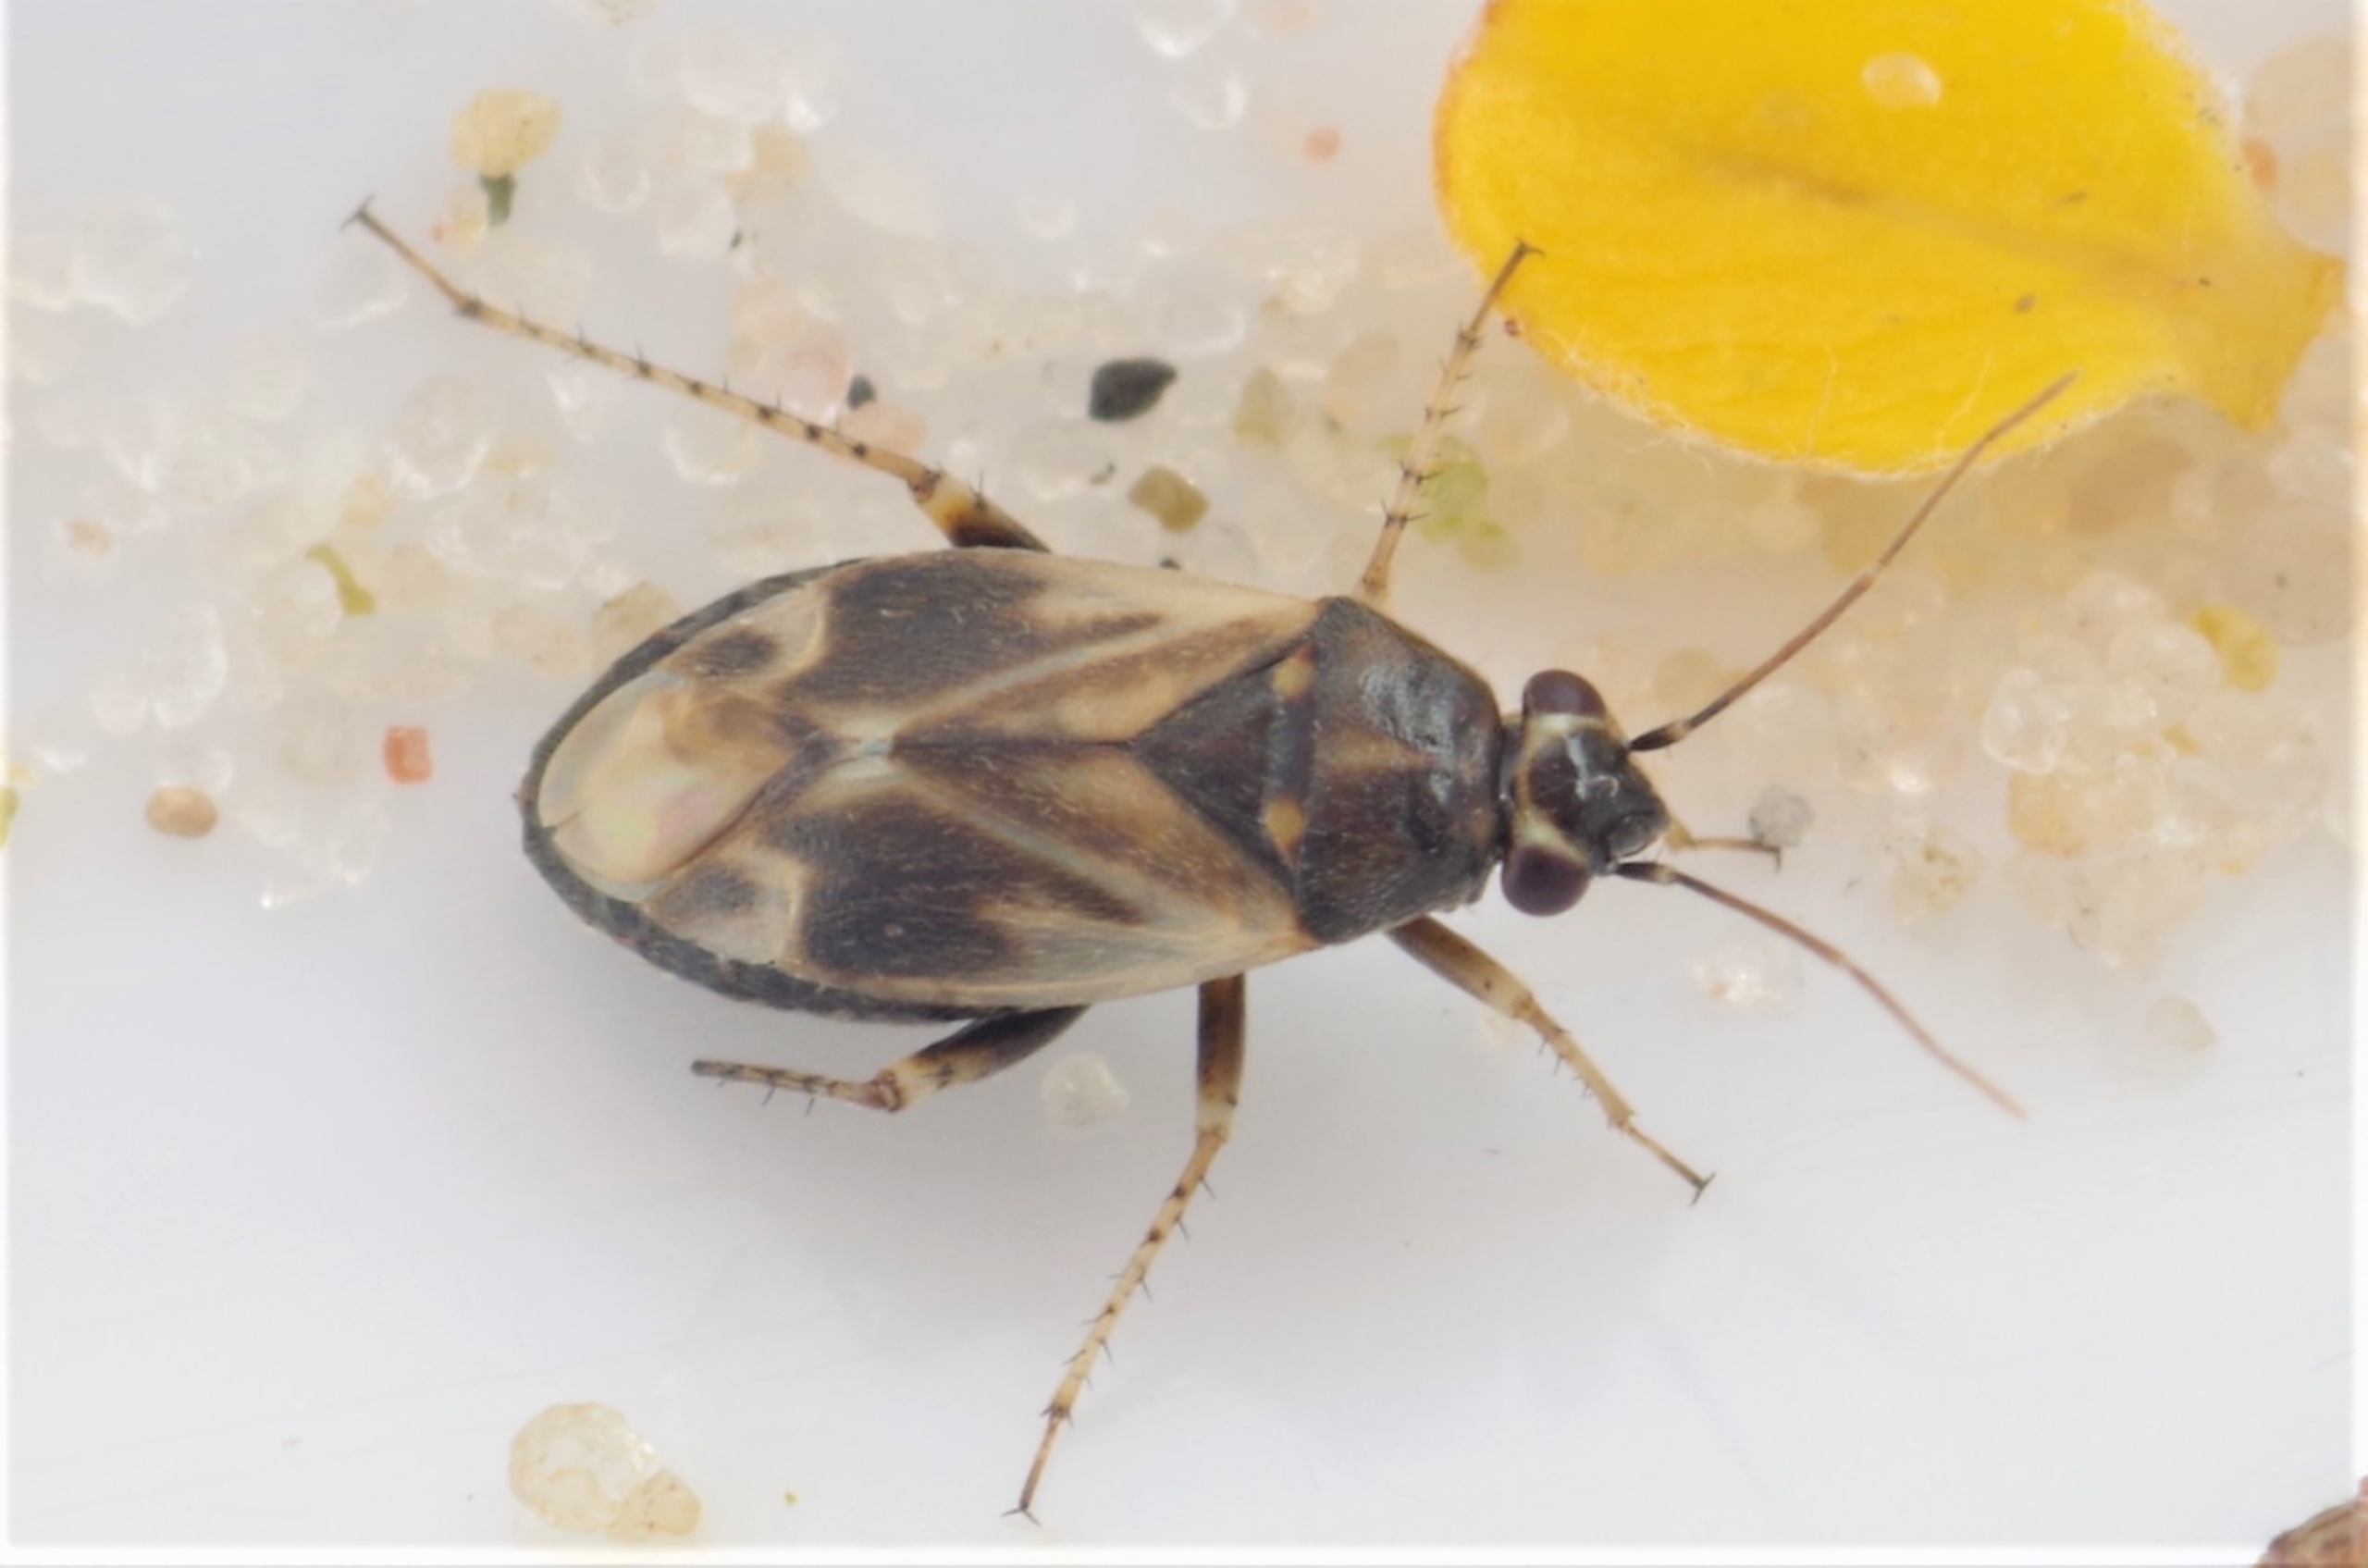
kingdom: Animalia
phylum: Arthropoda
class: Insecta
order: Hemiptera
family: Miridae
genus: Monosynamma
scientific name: Monosynamma bohemanni
